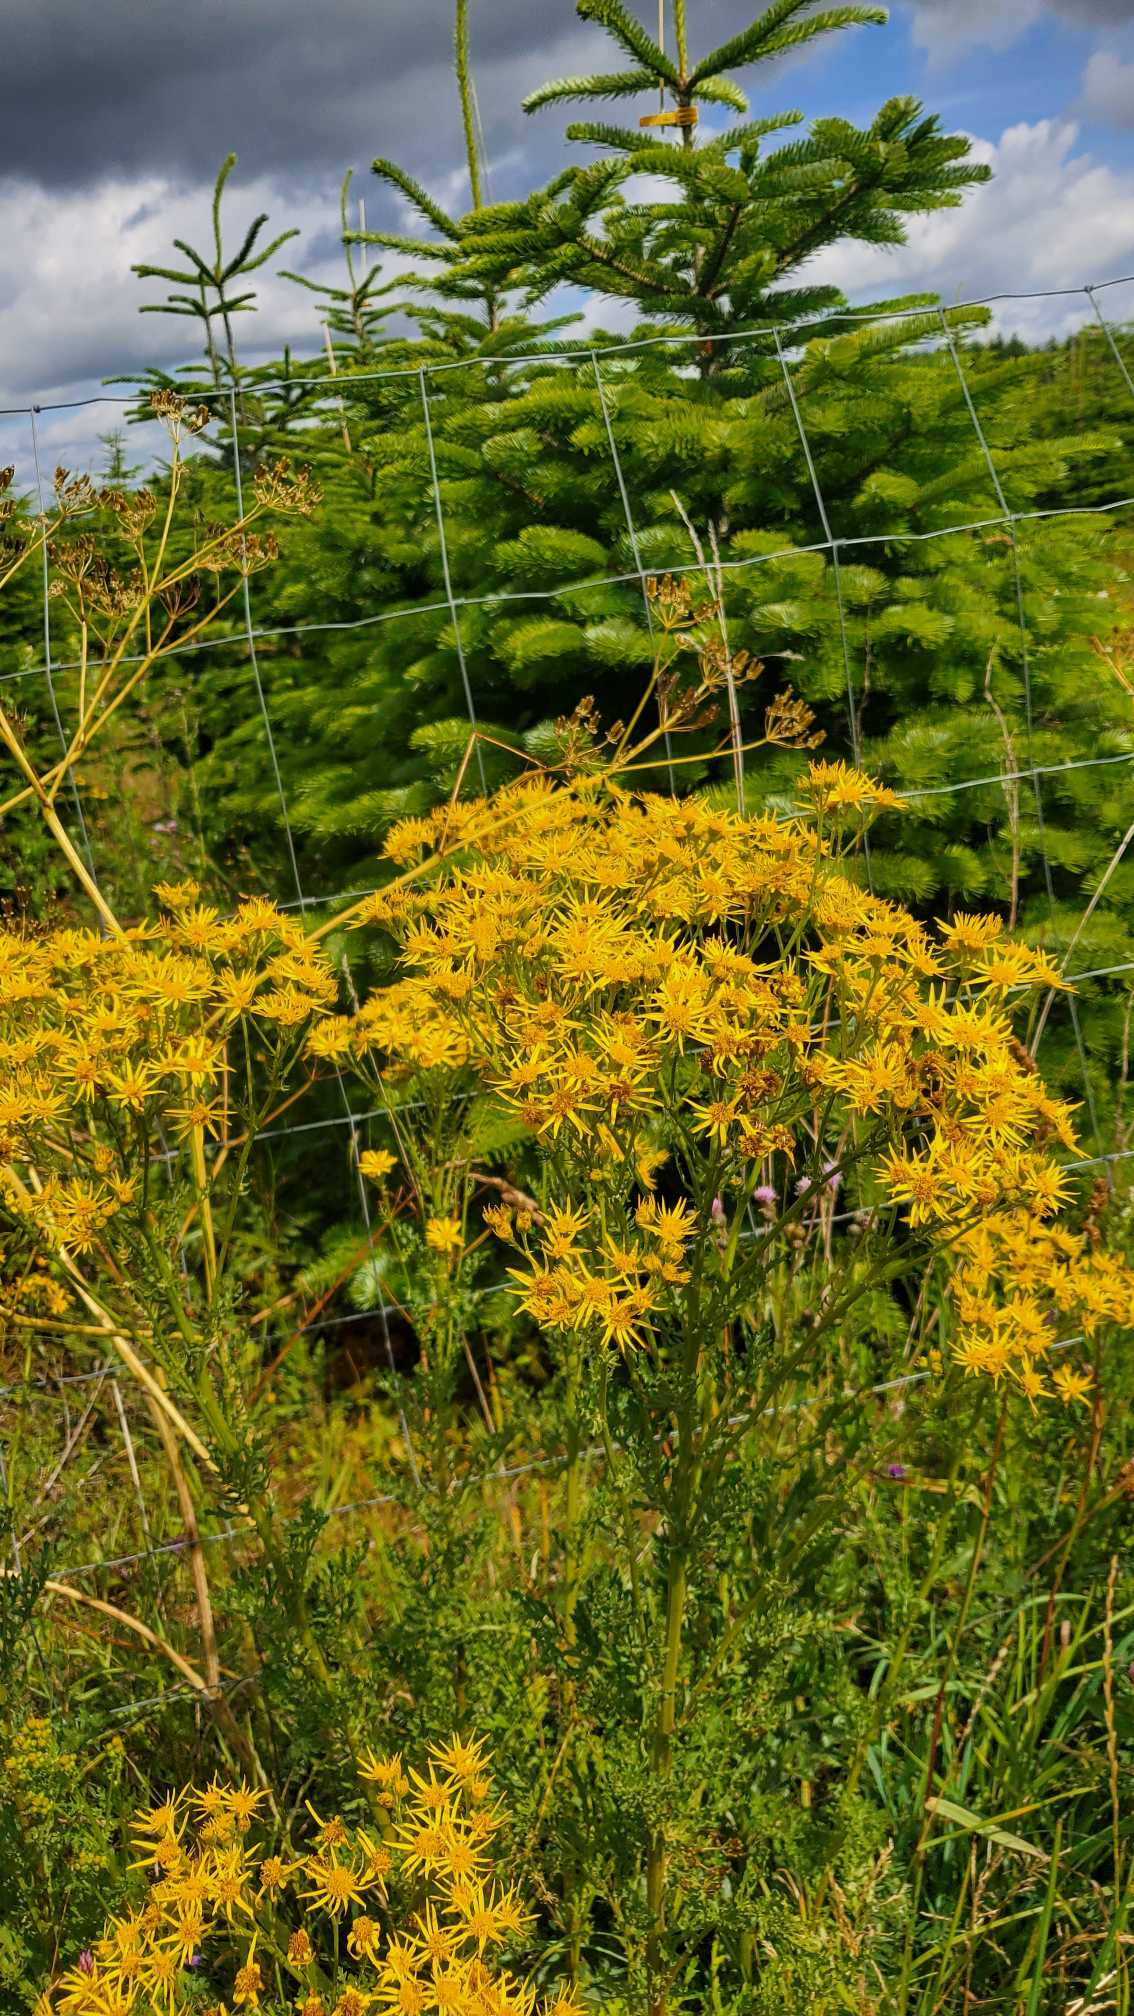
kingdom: Plantae
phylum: Tracheophyta
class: Magnoliopsida
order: Asterales
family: Asteraceae
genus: Jacobaea
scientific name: Jacobaea vulgaris
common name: Eng-brandbæger
